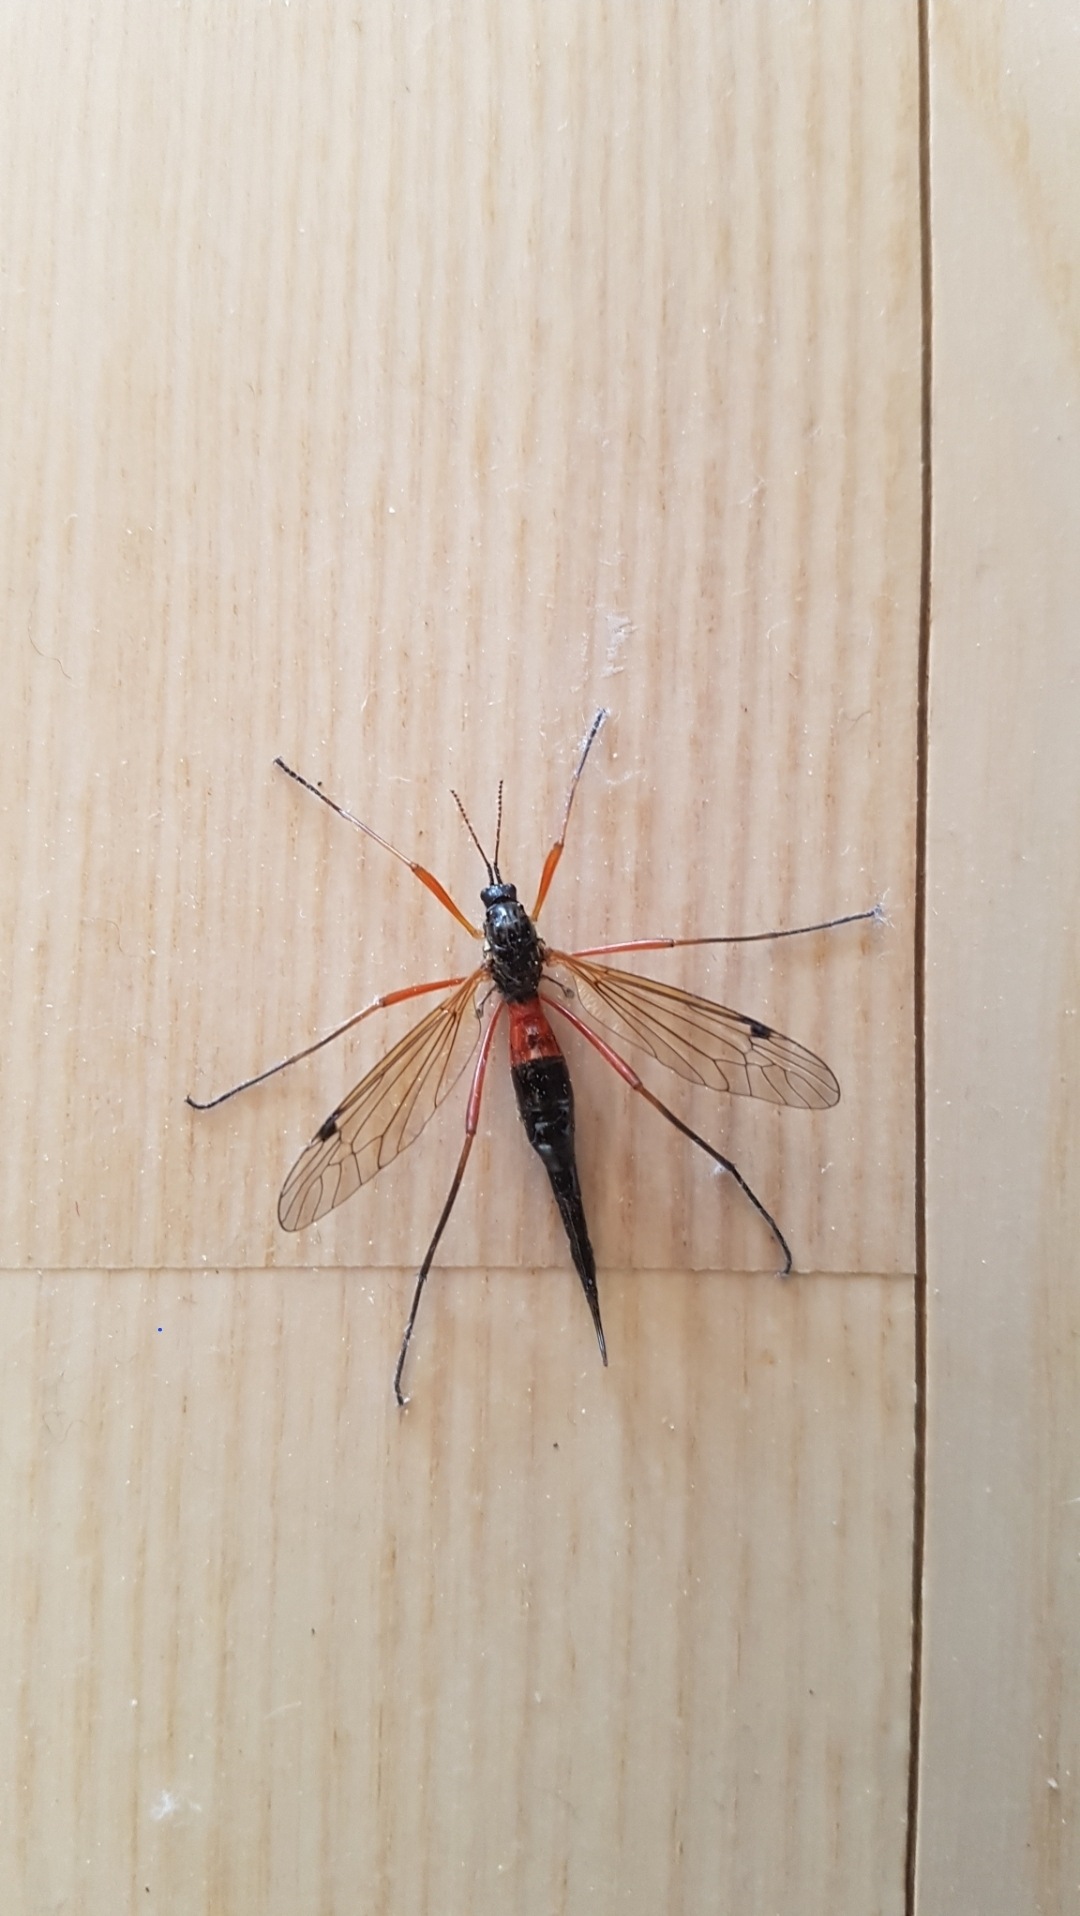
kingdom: Animalia
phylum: Arthropoda
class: Insecta
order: Diptera
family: Tipulidae
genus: Tanyptera
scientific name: Tanyptera atrata
